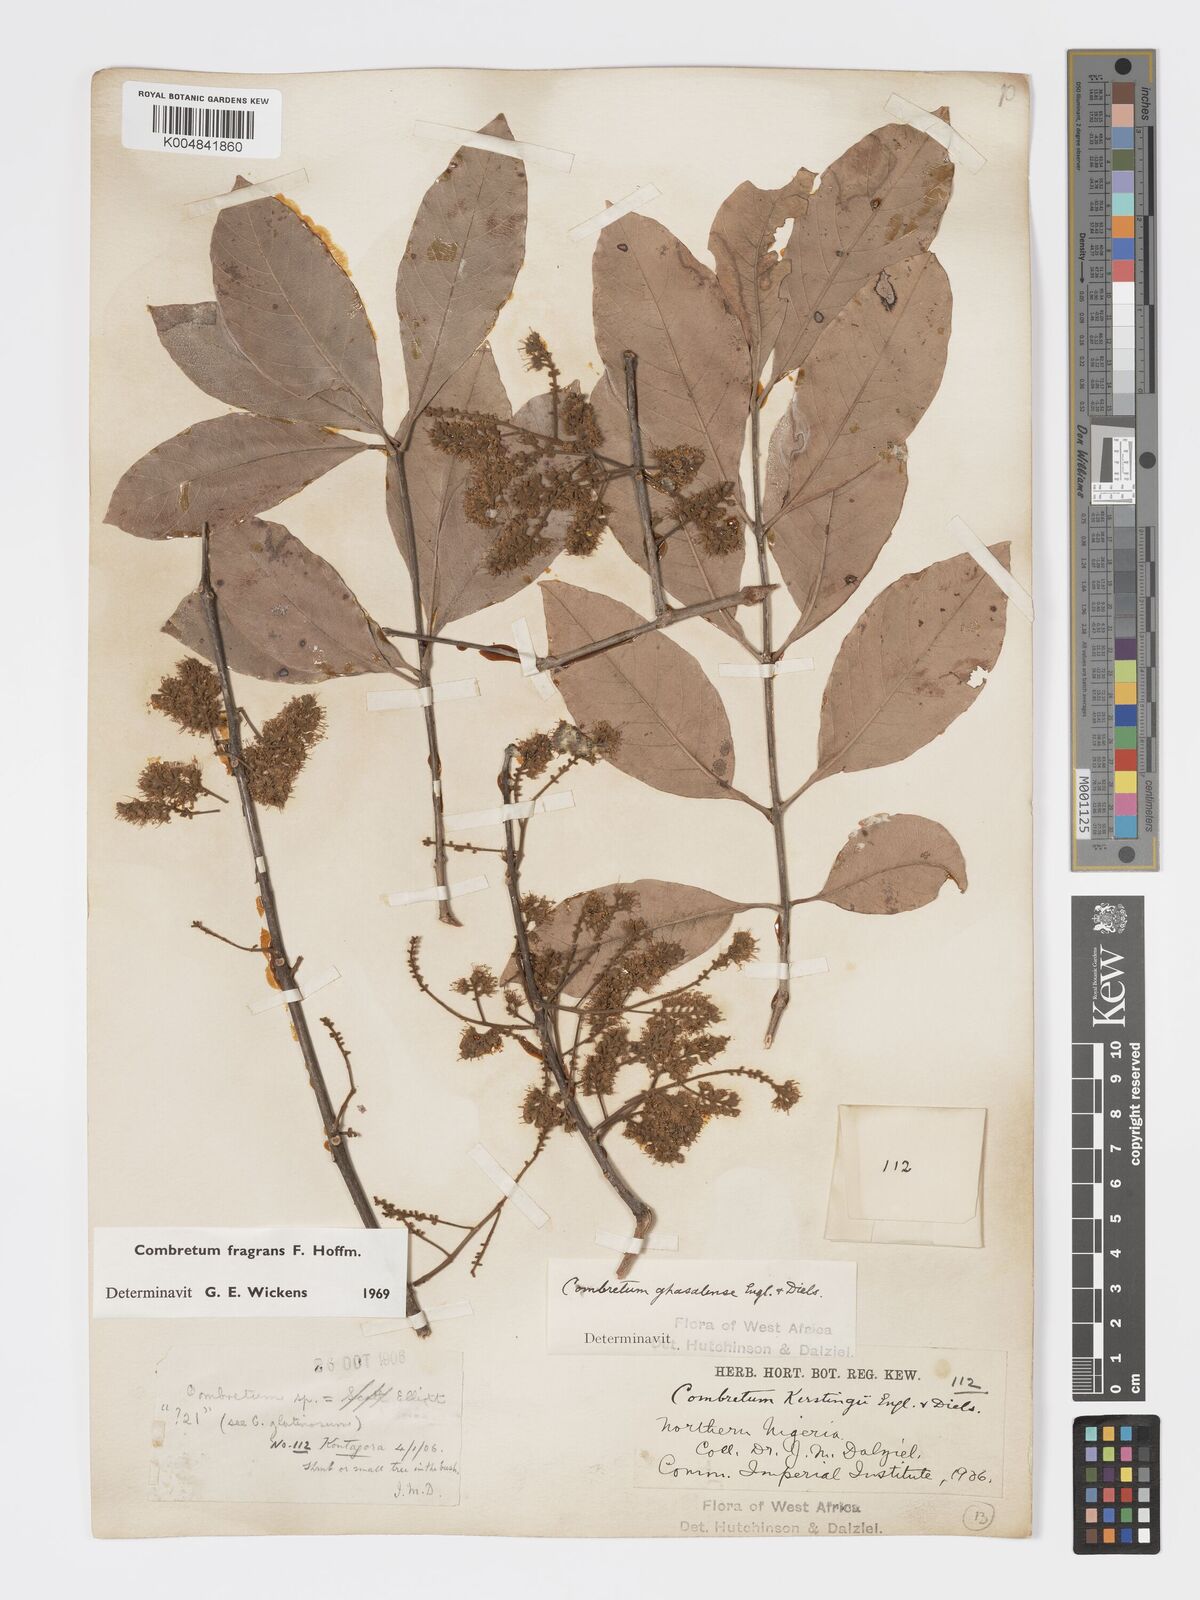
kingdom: Plantae
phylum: Tracheophyta
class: Magnoliopsida
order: Myrtales
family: Combretaceae
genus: Combretum
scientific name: Combretum adenogonium
